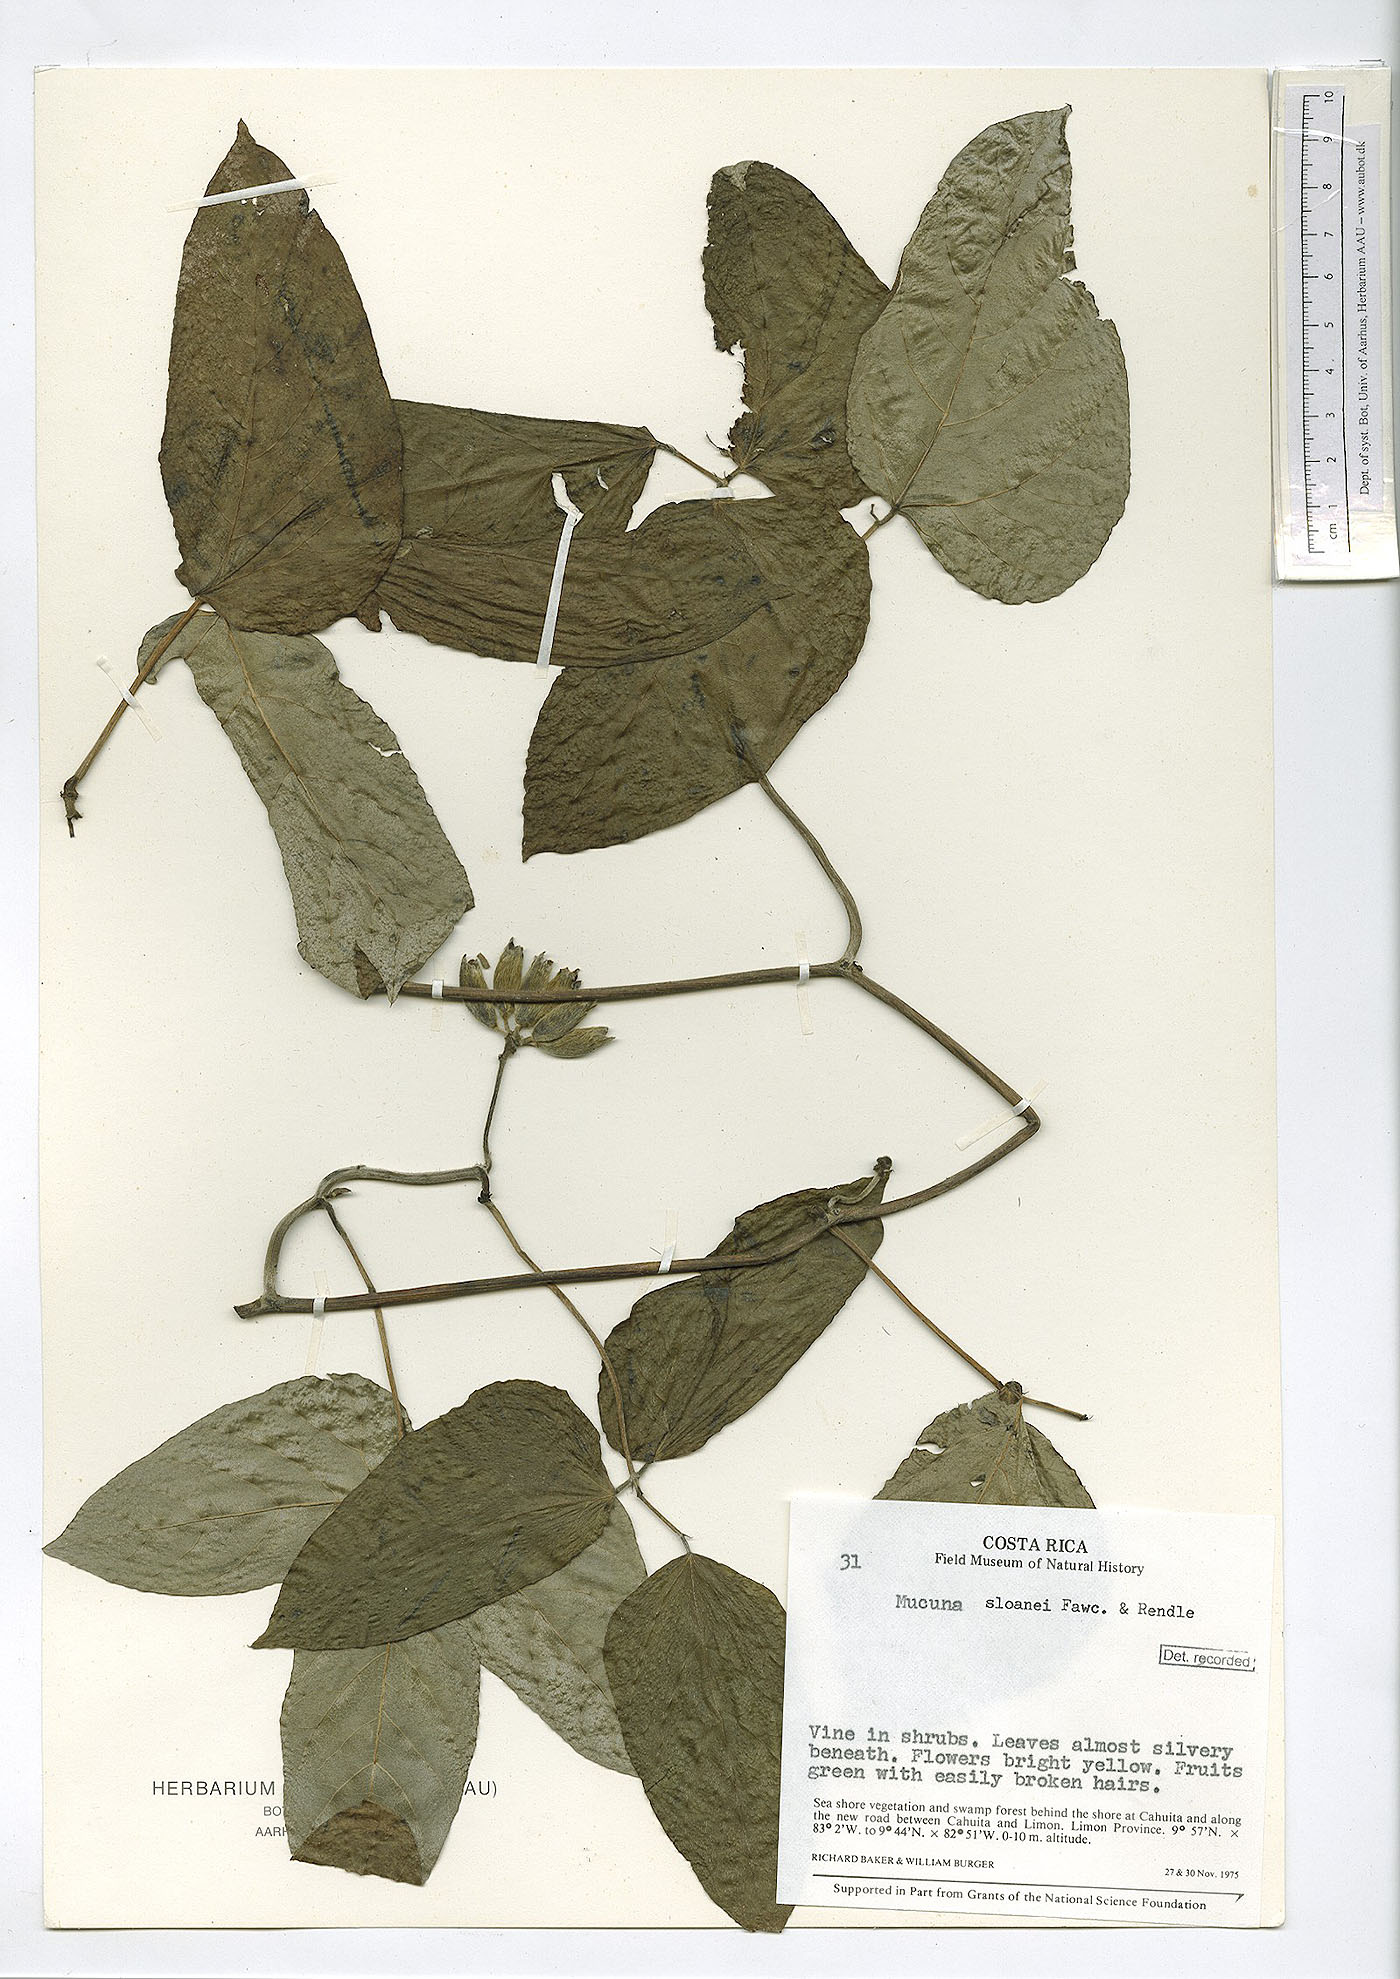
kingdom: Plantae
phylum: Tracheophyta
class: Magnoliopsida
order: Fabales
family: Fabaceae
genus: Mucuna
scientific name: Mucuna sloanei
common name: Horse-eye bean
